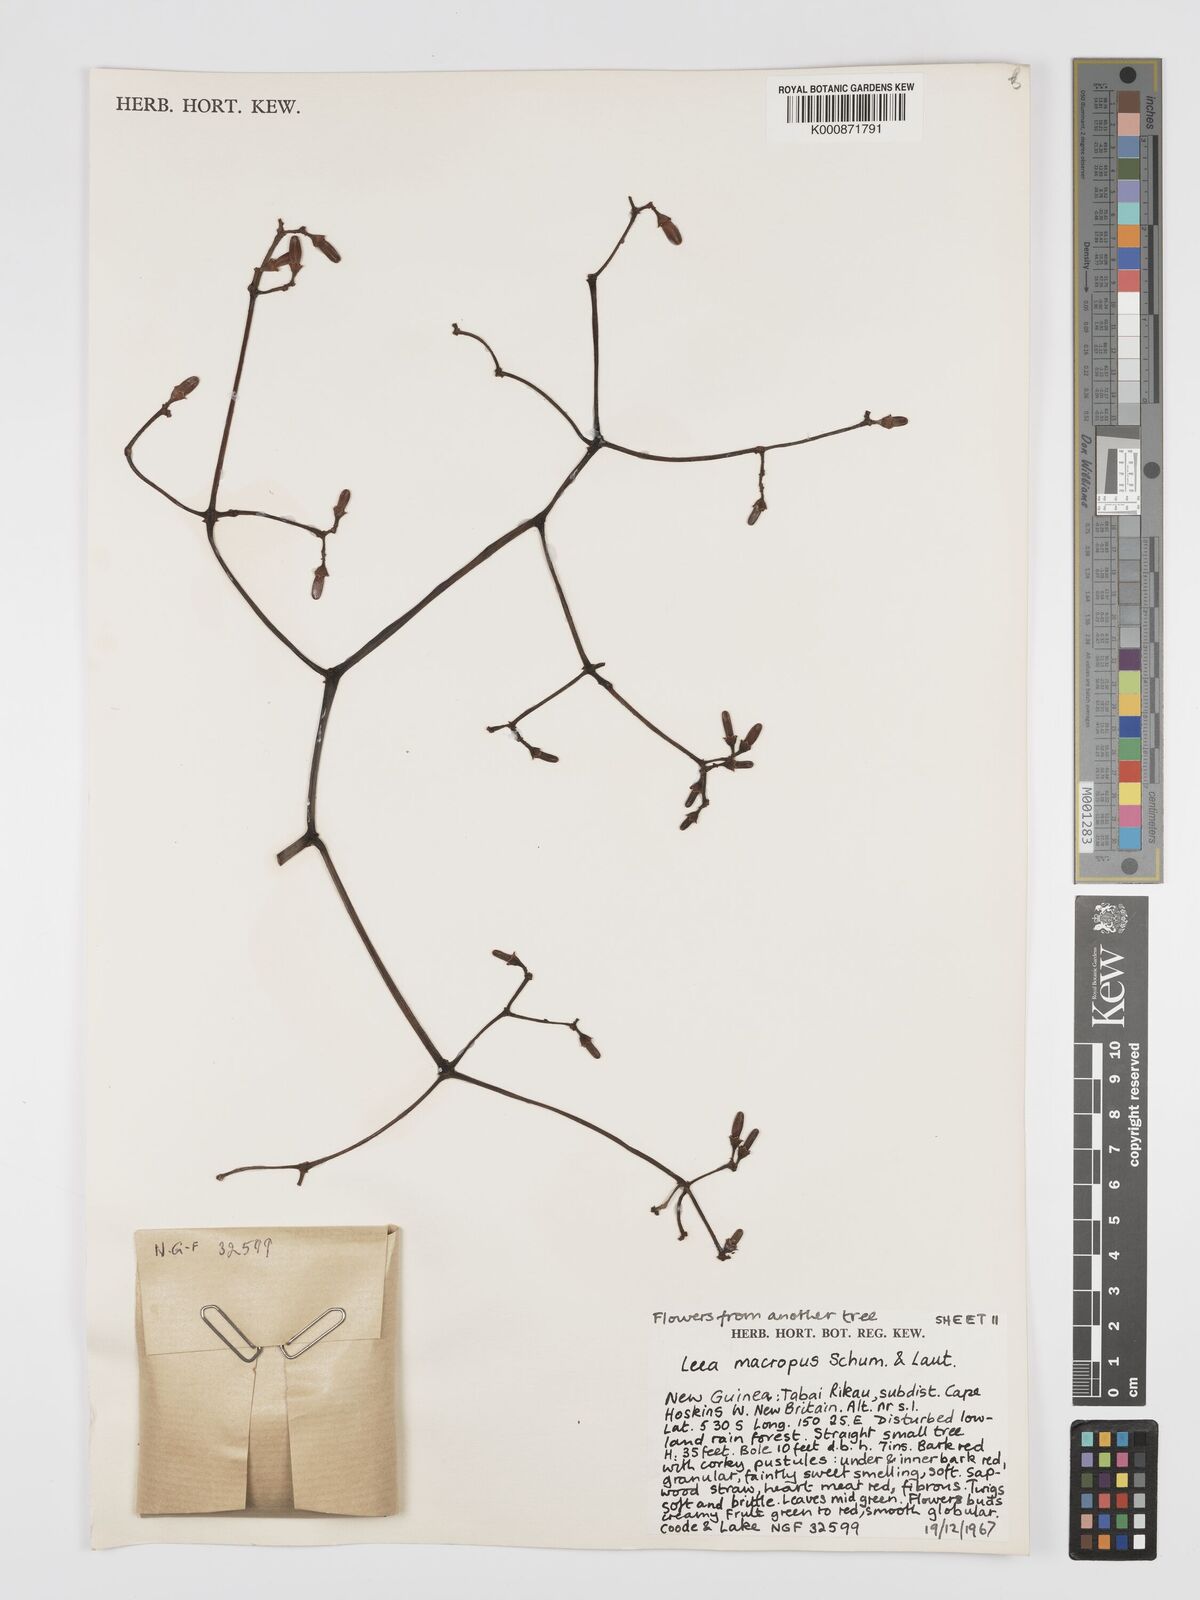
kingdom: Plantae
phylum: Tracheophyta
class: Magnoliopsida
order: Vitales
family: Vitaceae
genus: Leea
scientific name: Leea macropus
